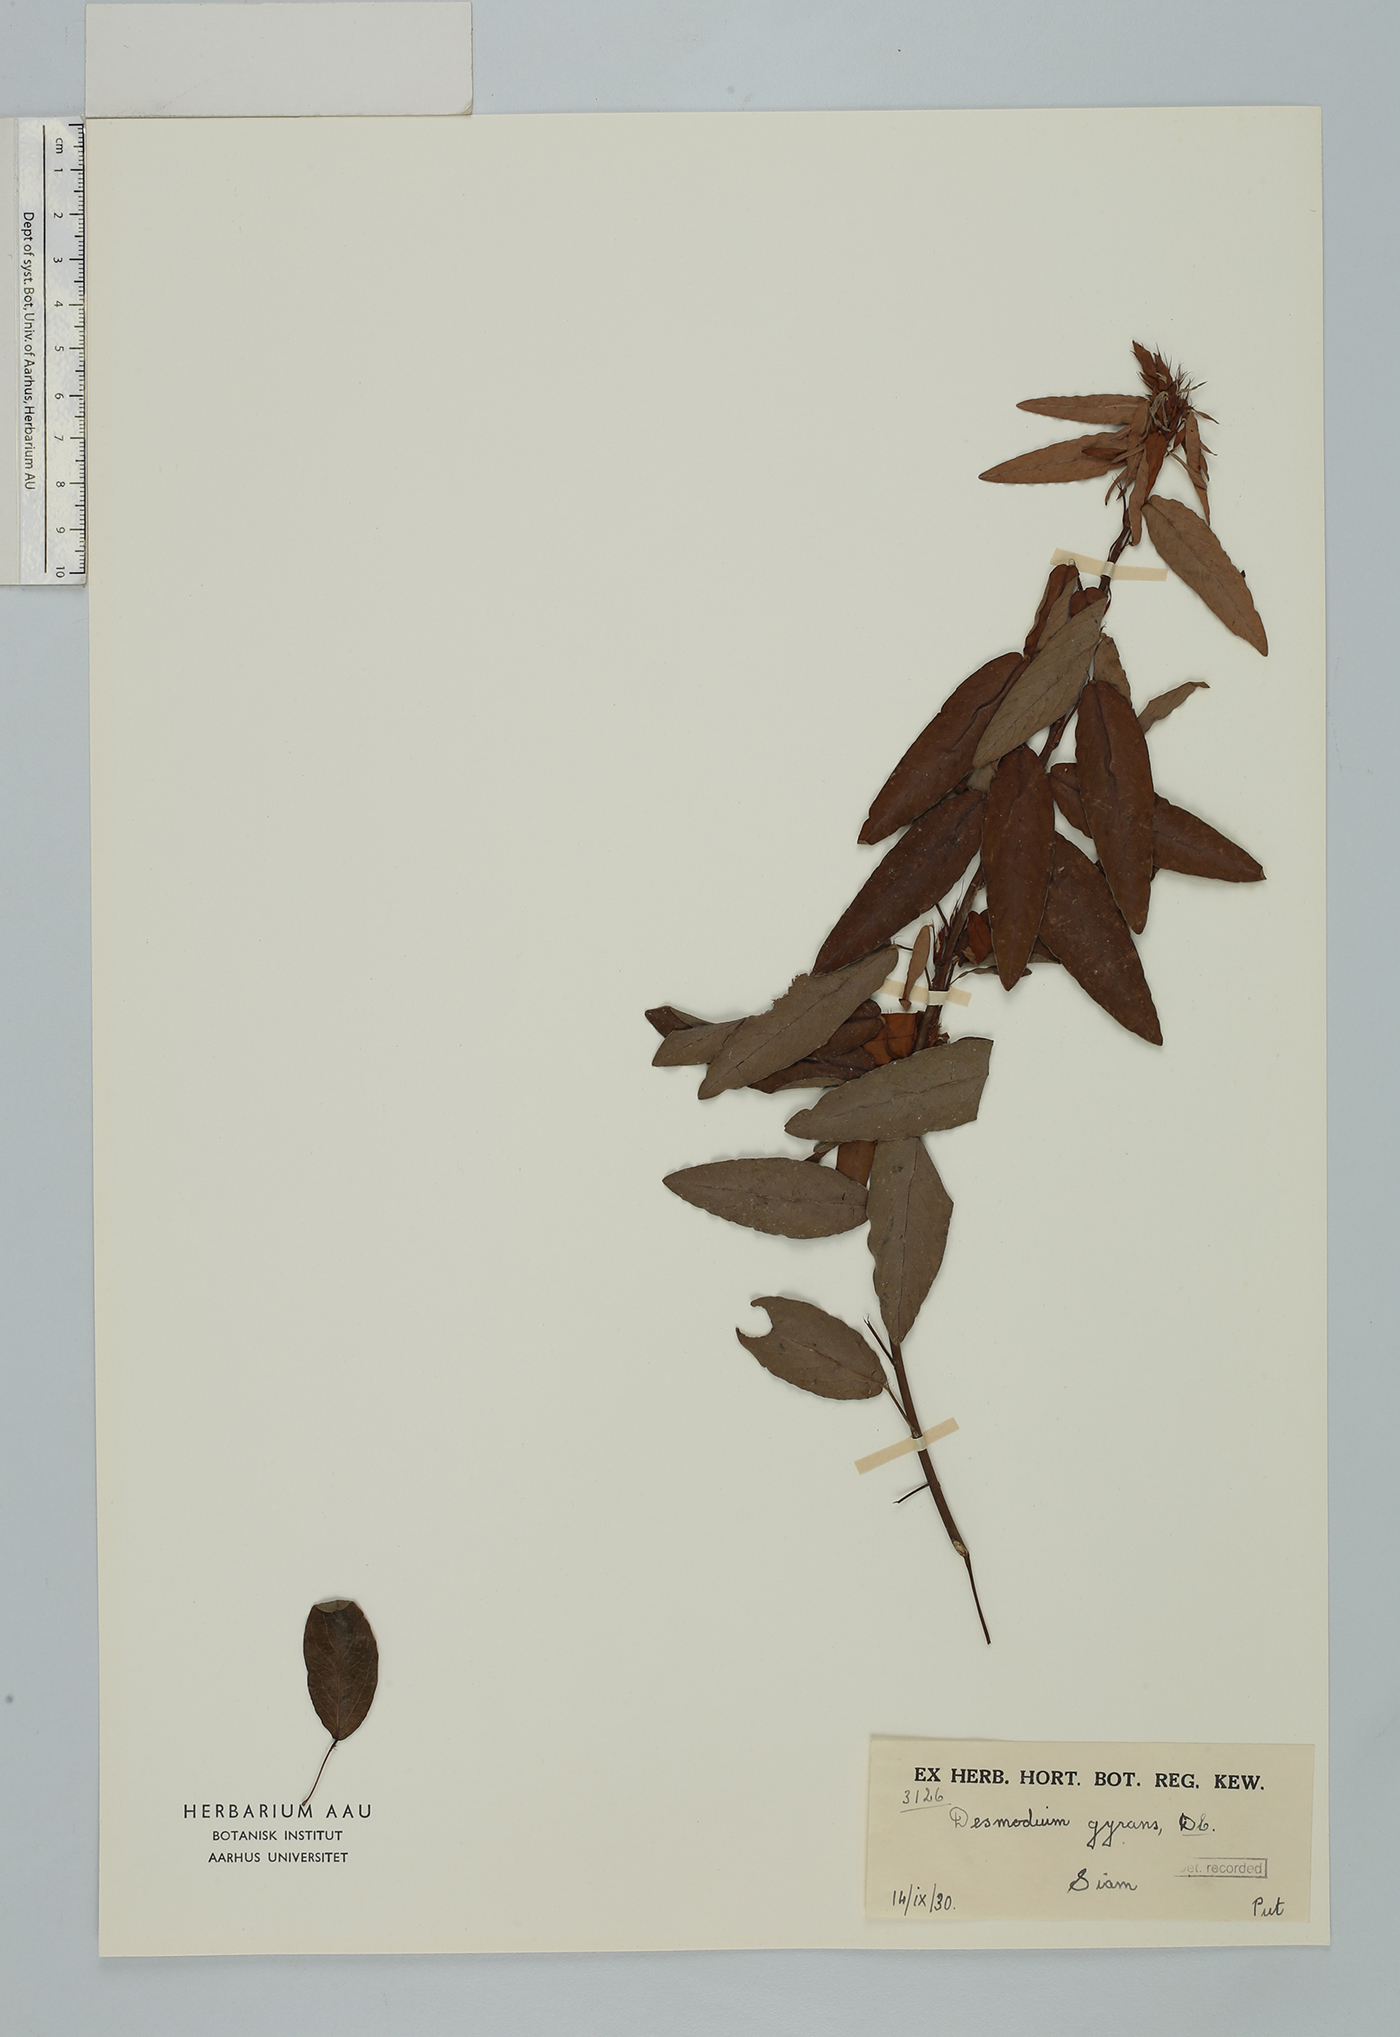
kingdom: Plantae
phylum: Tracheophyta
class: Magnoliopsida
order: Fabales
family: Fabaceae
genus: Codariocalyx
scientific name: Codariocalyx motorius
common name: Telegraph-plant
